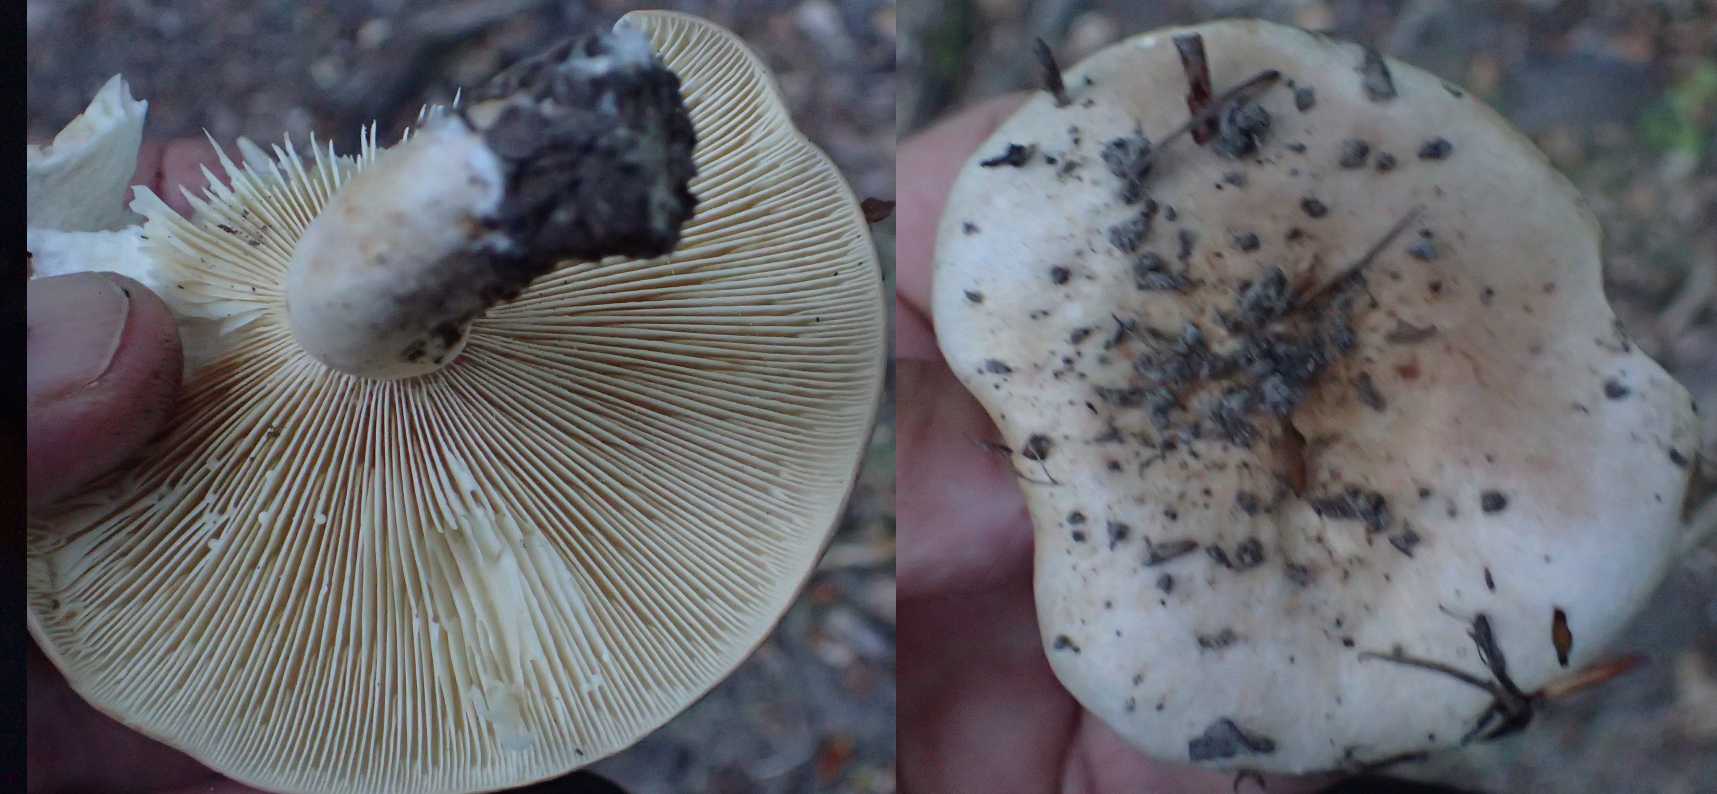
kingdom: Fungi
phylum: Basidiomycota
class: Agaricomycetes
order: Russulales
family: Russulaceae
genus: Lactarius
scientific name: Lactarius pallidus
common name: bleg mælkehat
